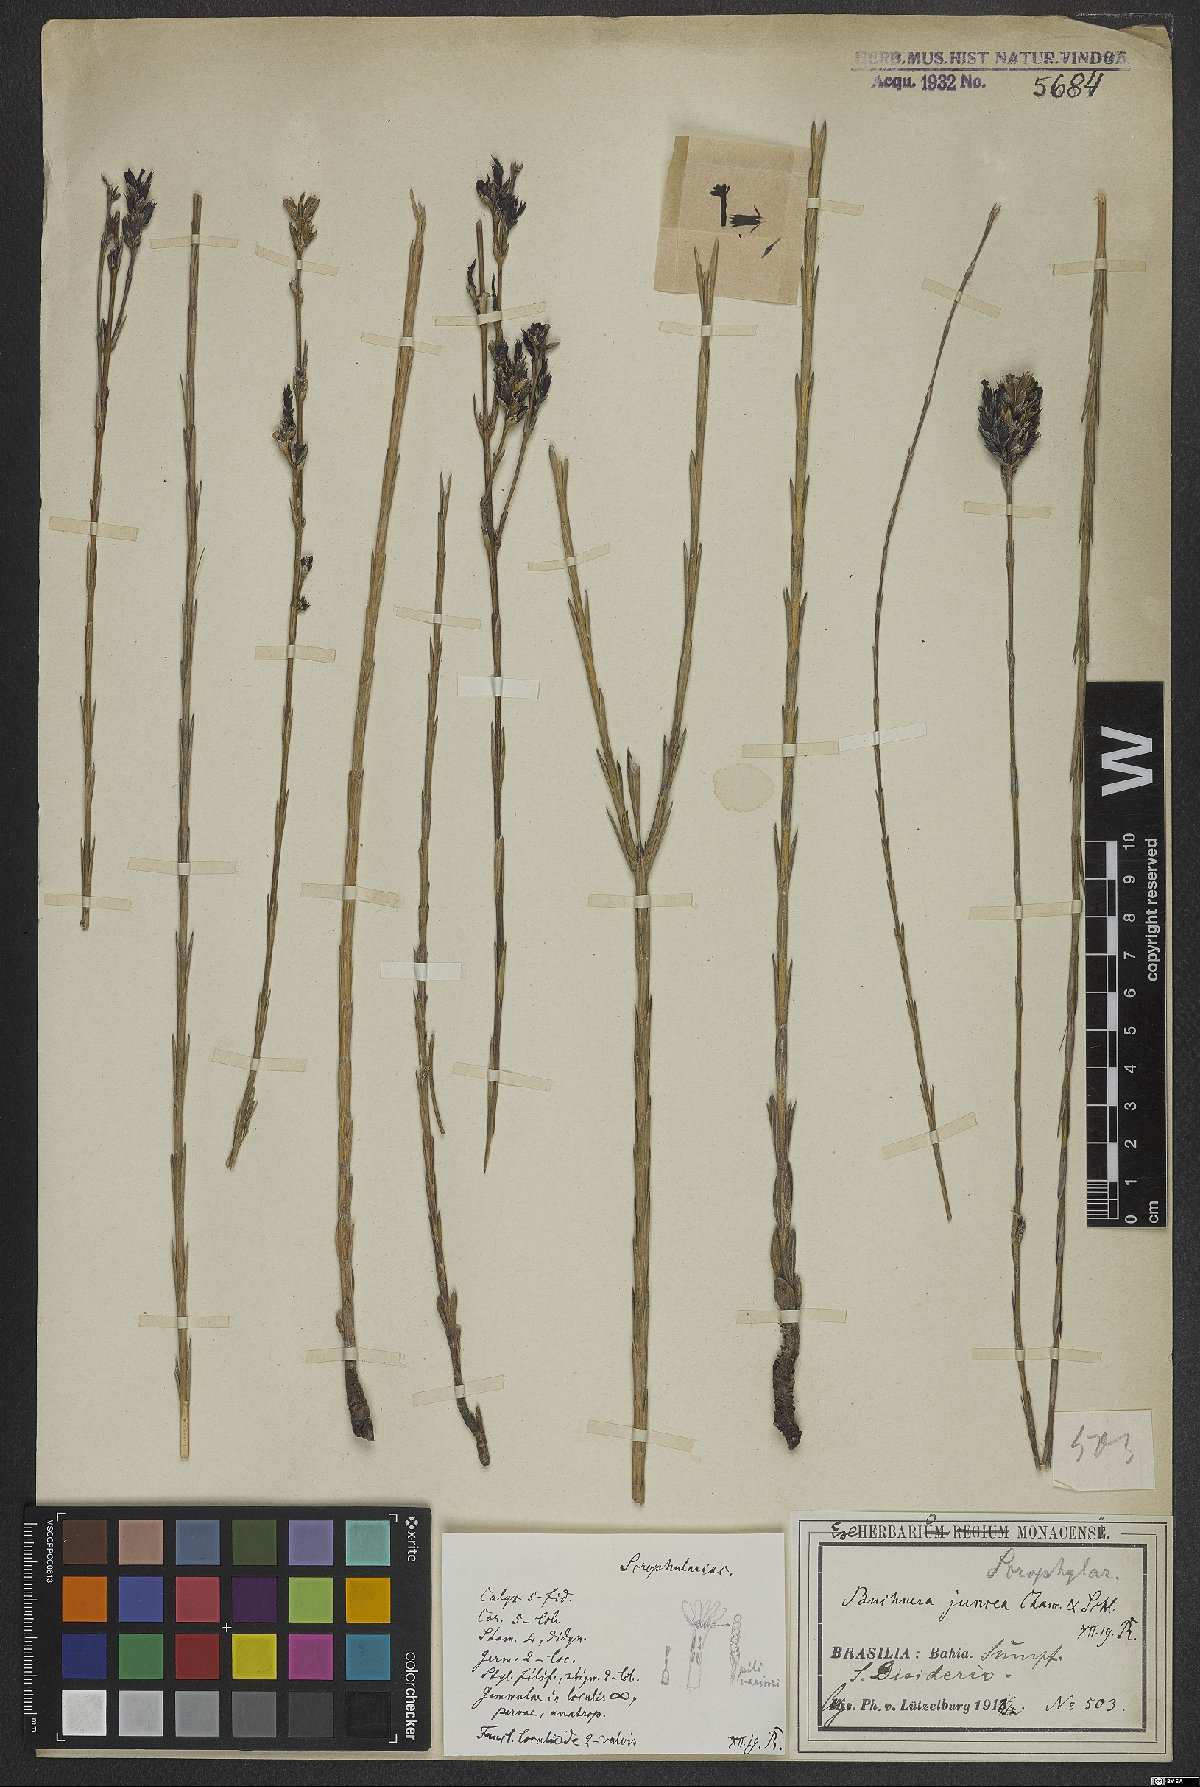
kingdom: Plantae
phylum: Tracheophyta
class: Magnoliopsida
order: Lamiales
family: Orobanchaceae
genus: Buchnera
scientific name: Buchnera juncea
